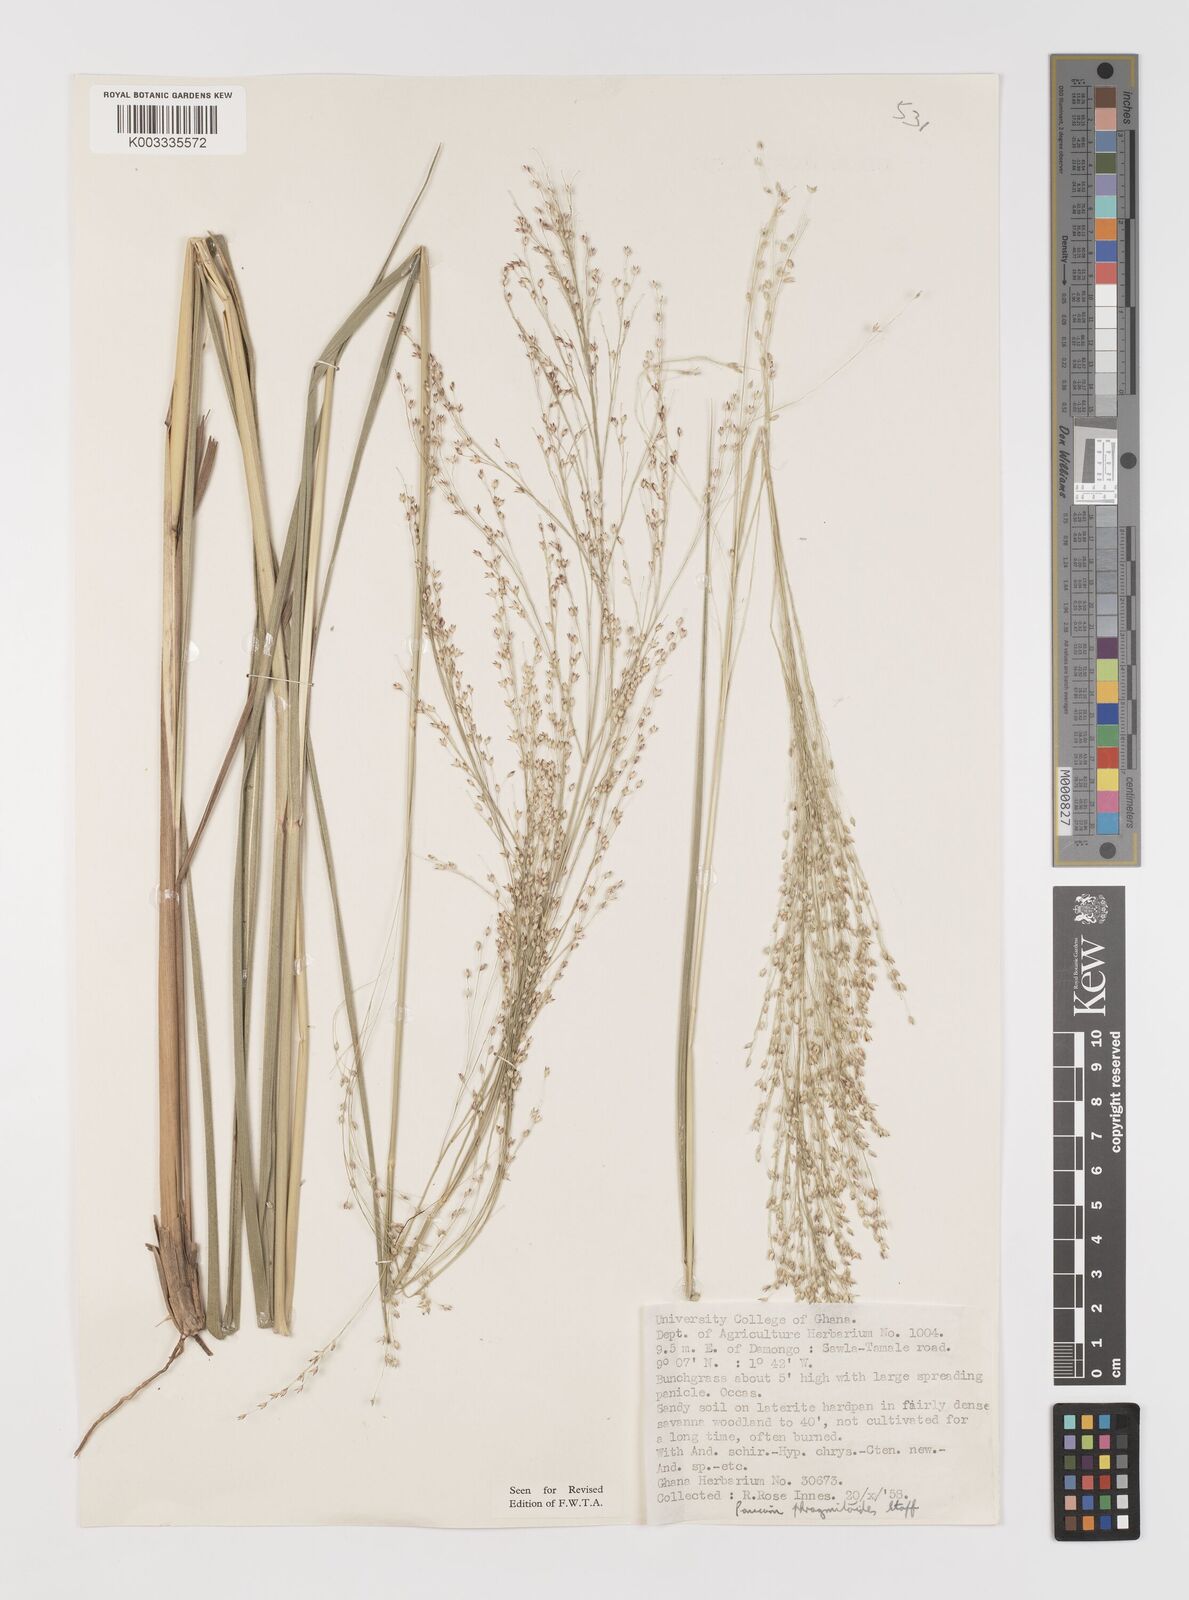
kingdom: Plantae
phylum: Tracheophyta
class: Liliopsida
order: Poales
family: Poaceae
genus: Panicum
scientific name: Panicum phragmitoides
